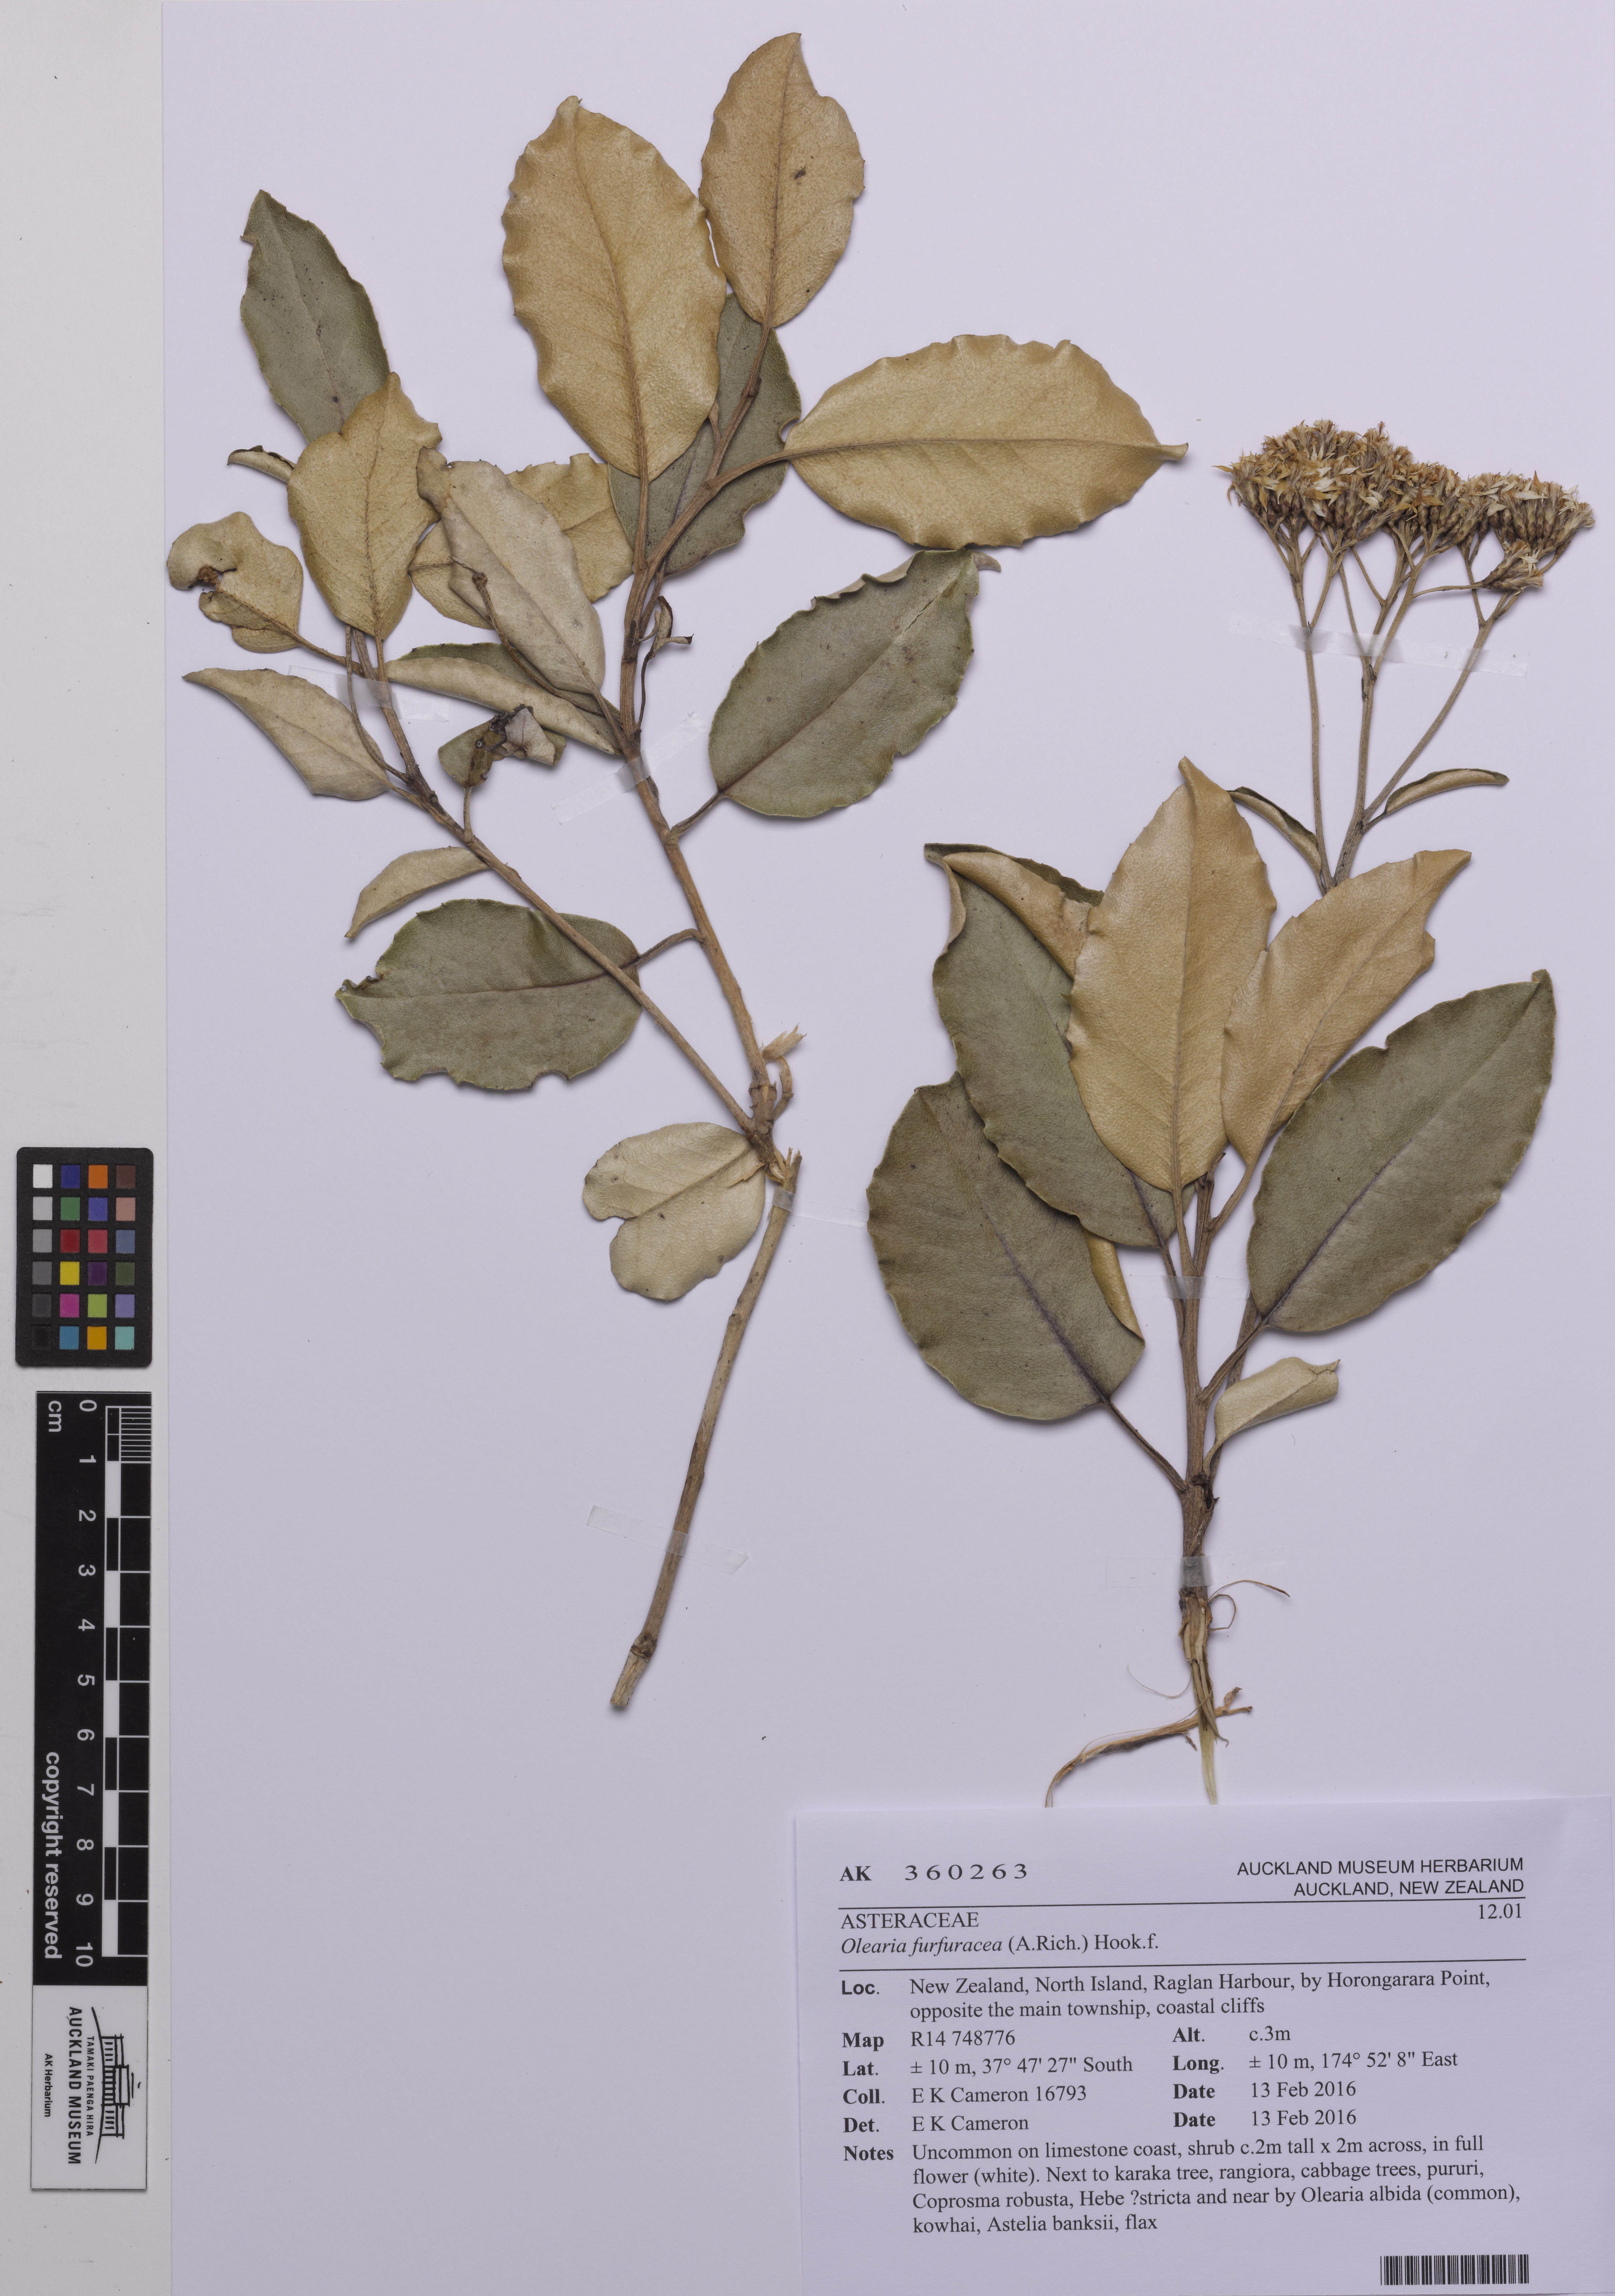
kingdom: Plantae
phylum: Tracheophyta
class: Magnoliopsida
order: Asterales
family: Asteraceae
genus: Olearia
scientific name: Olearia furfuracea
